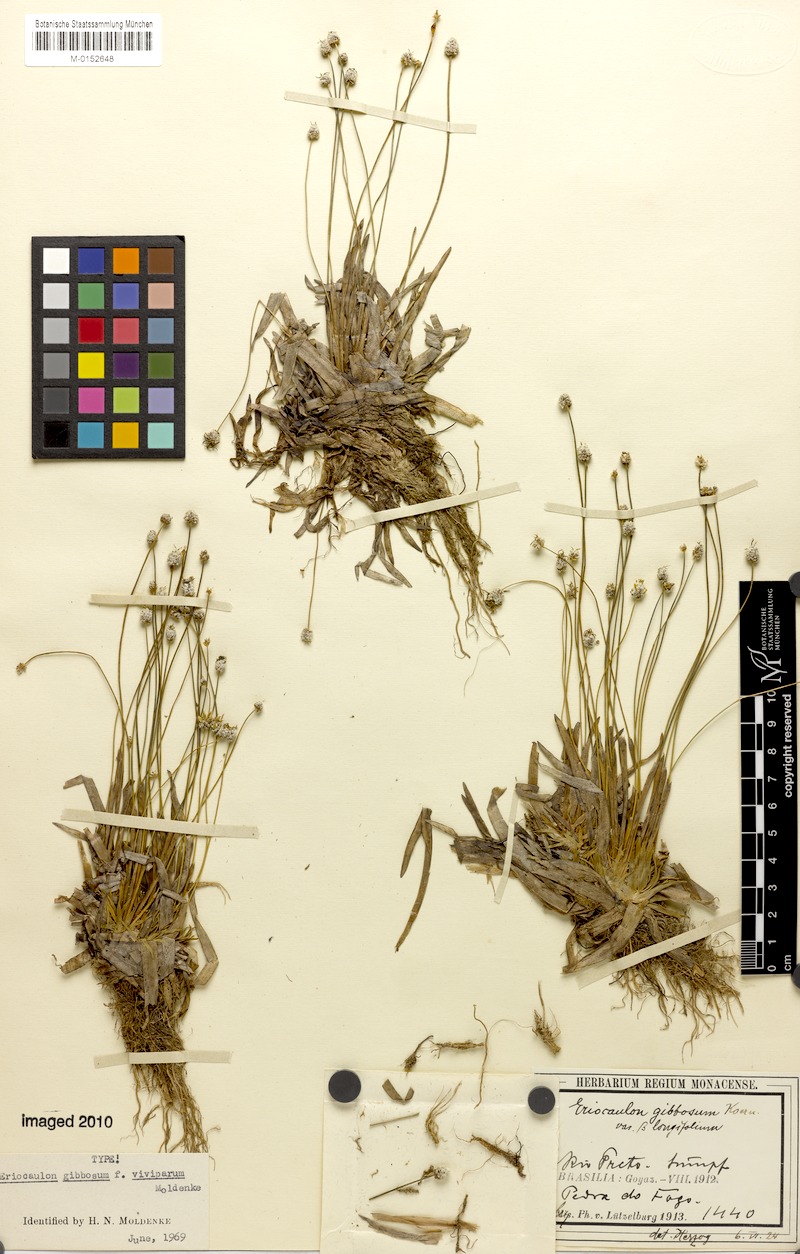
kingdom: Plantae
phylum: Tracheophyta
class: Liliopsida
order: Poales
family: Eriocaulaceae
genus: Eriocaulon
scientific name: Eriocaulon gibbosum
